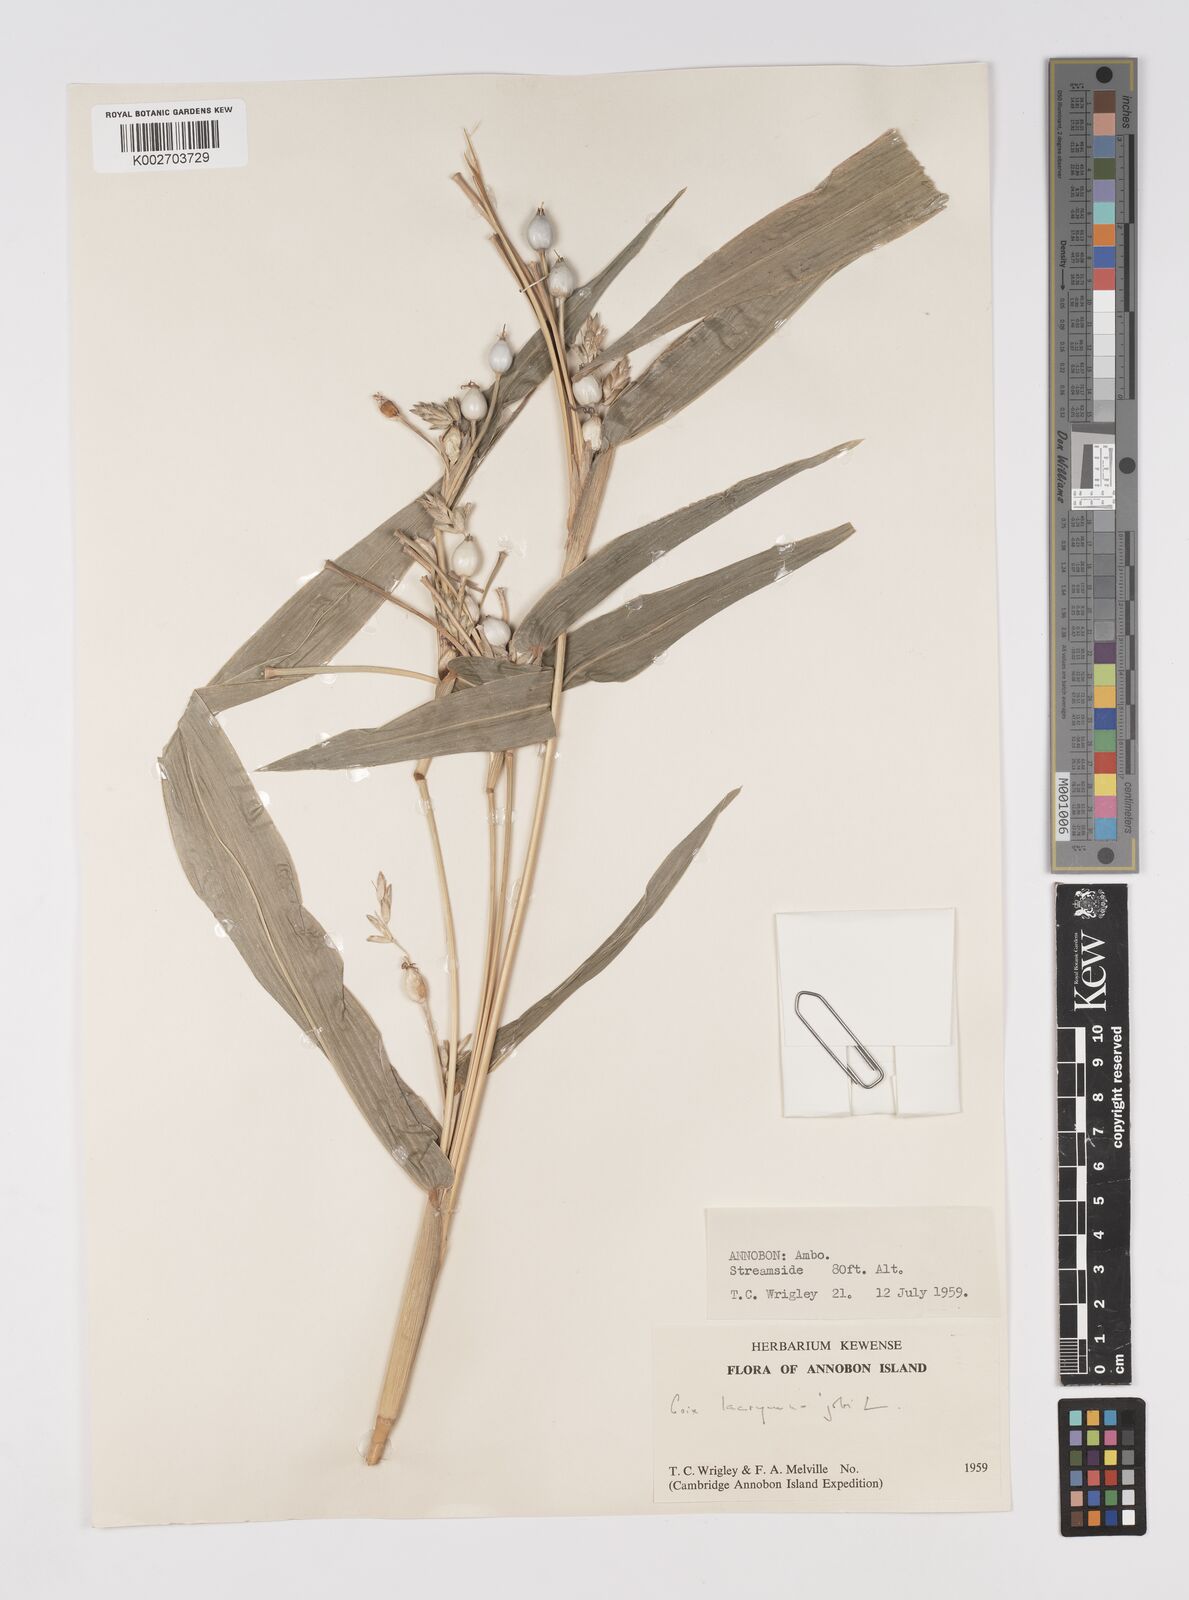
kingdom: Plantae
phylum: Tracheophyta
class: Liliopsida
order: Poales
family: Poaceae
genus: Coix
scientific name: Coix lacryma-jobi
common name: Job's tears
